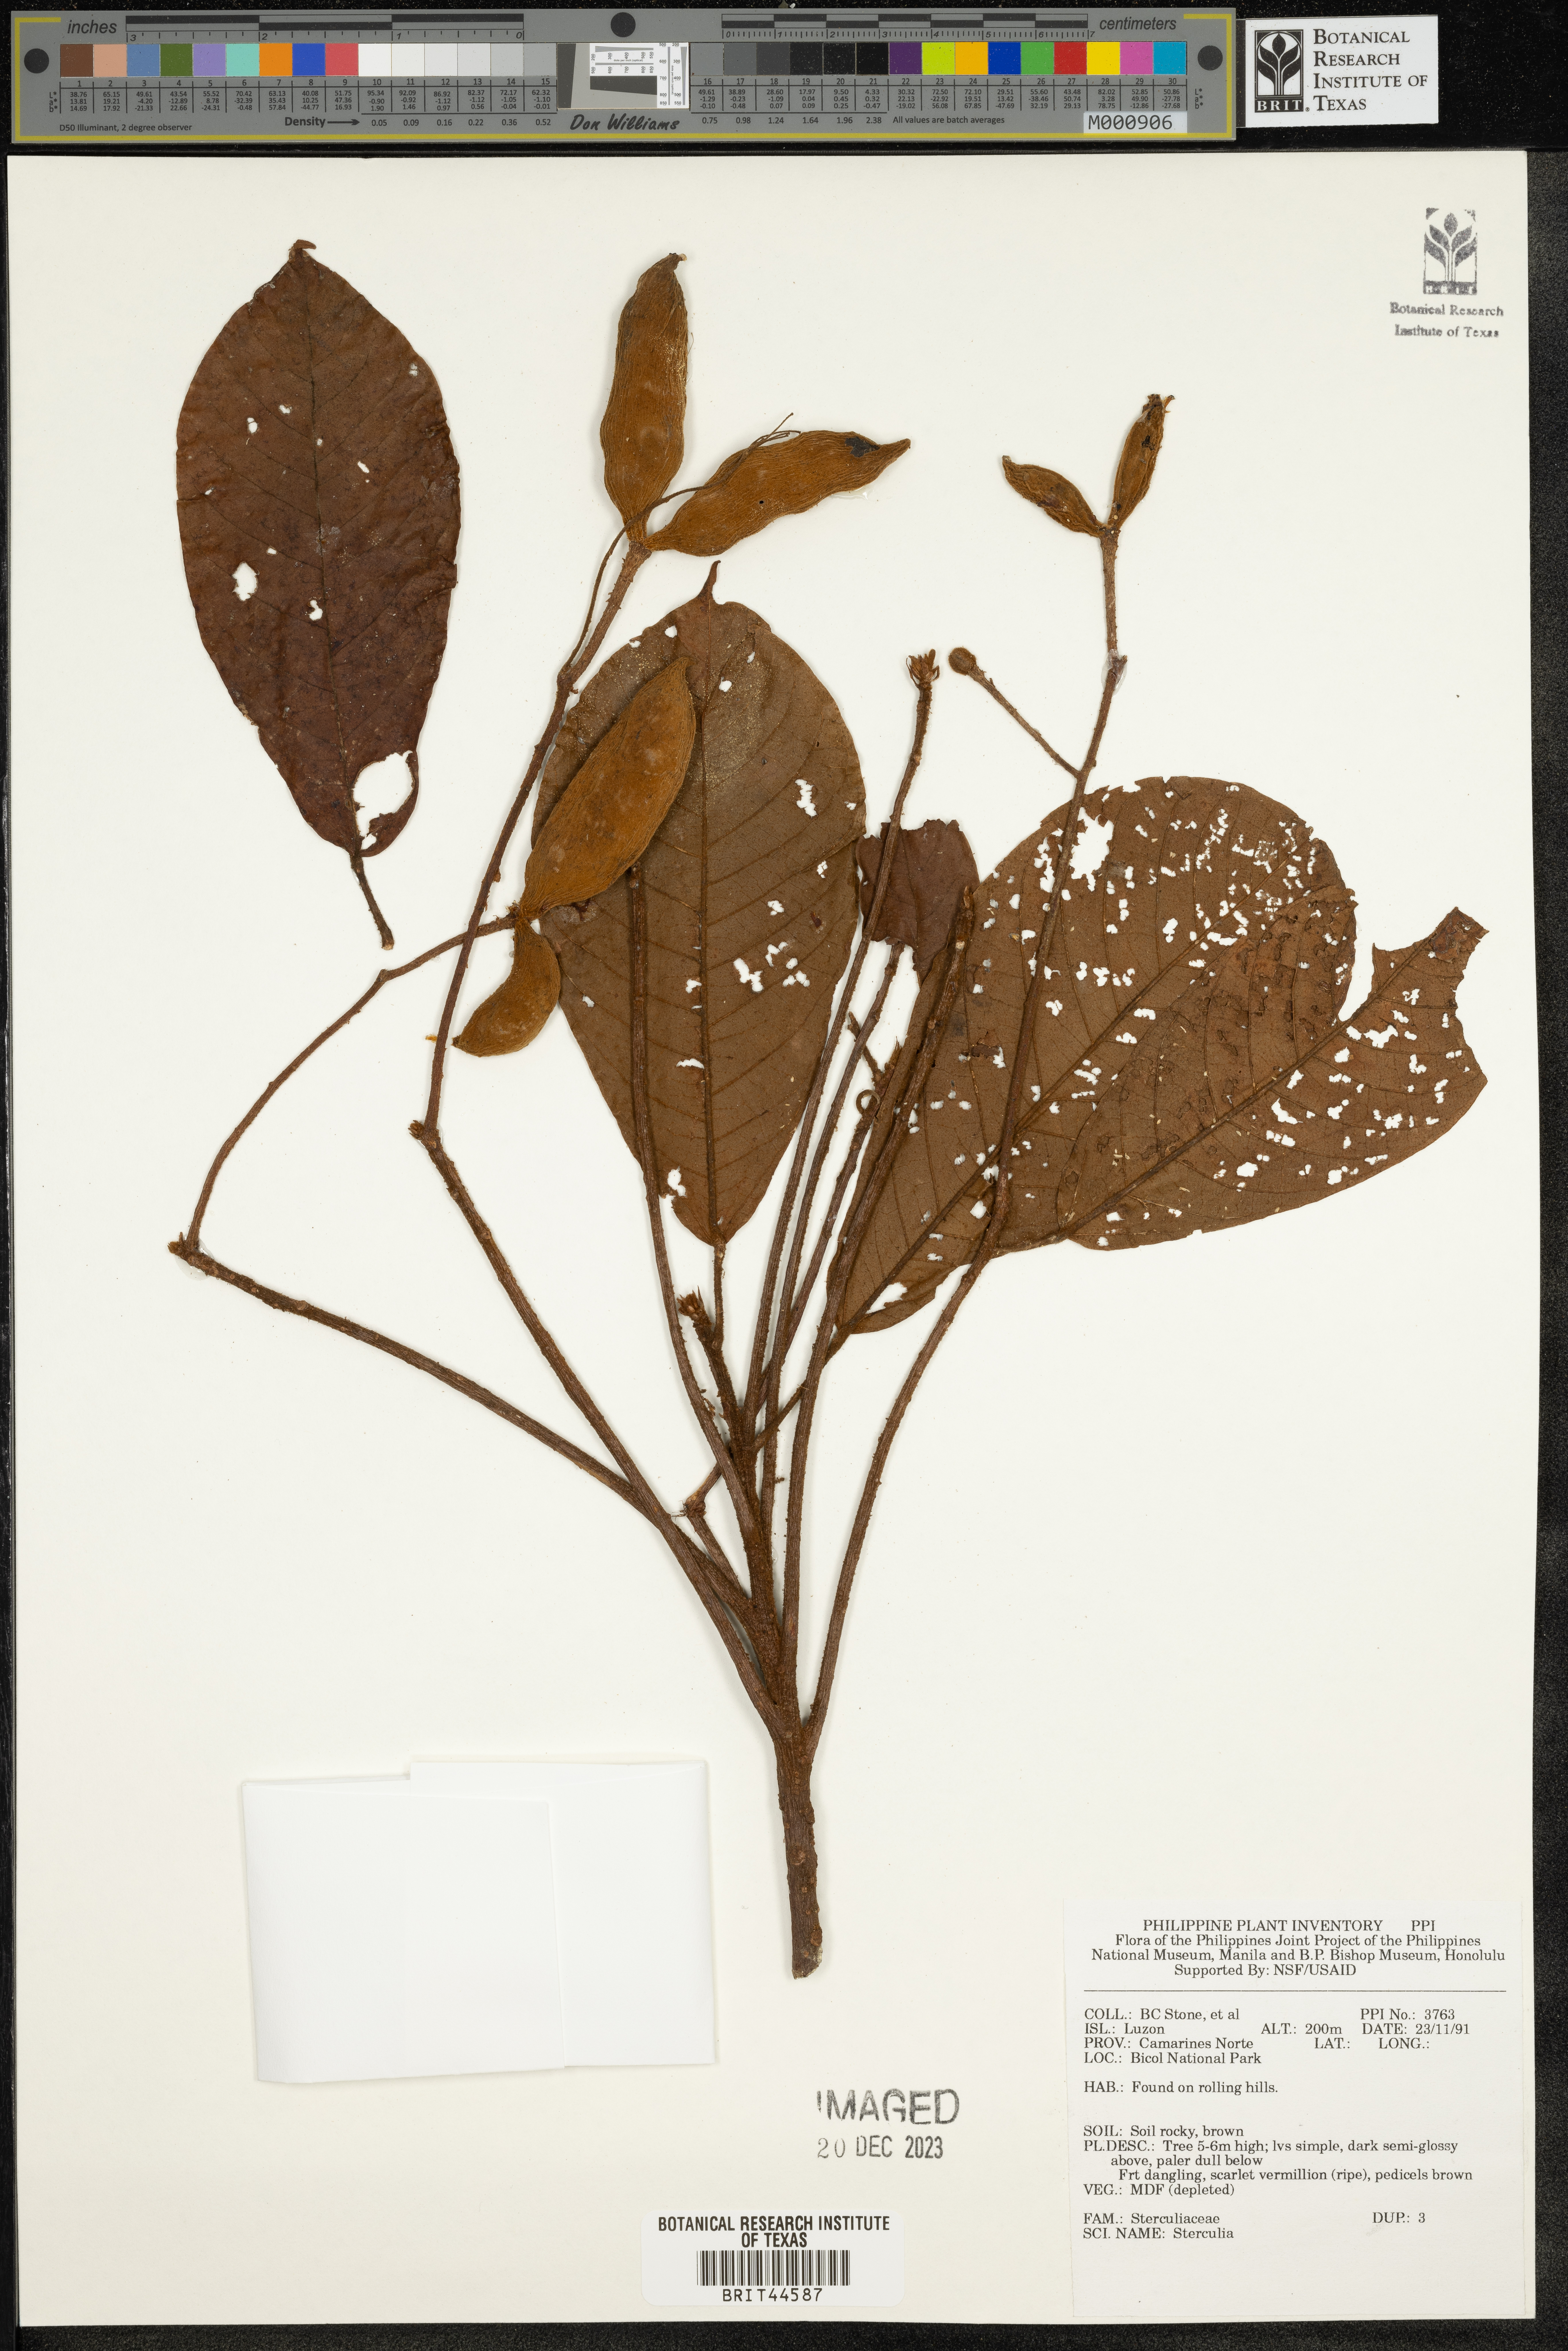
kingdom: Plantae
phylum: Tracheophyta
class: Magnoliopsida
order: Malvales
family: Malvaceae
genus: Sterculia
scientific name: Sterculia
